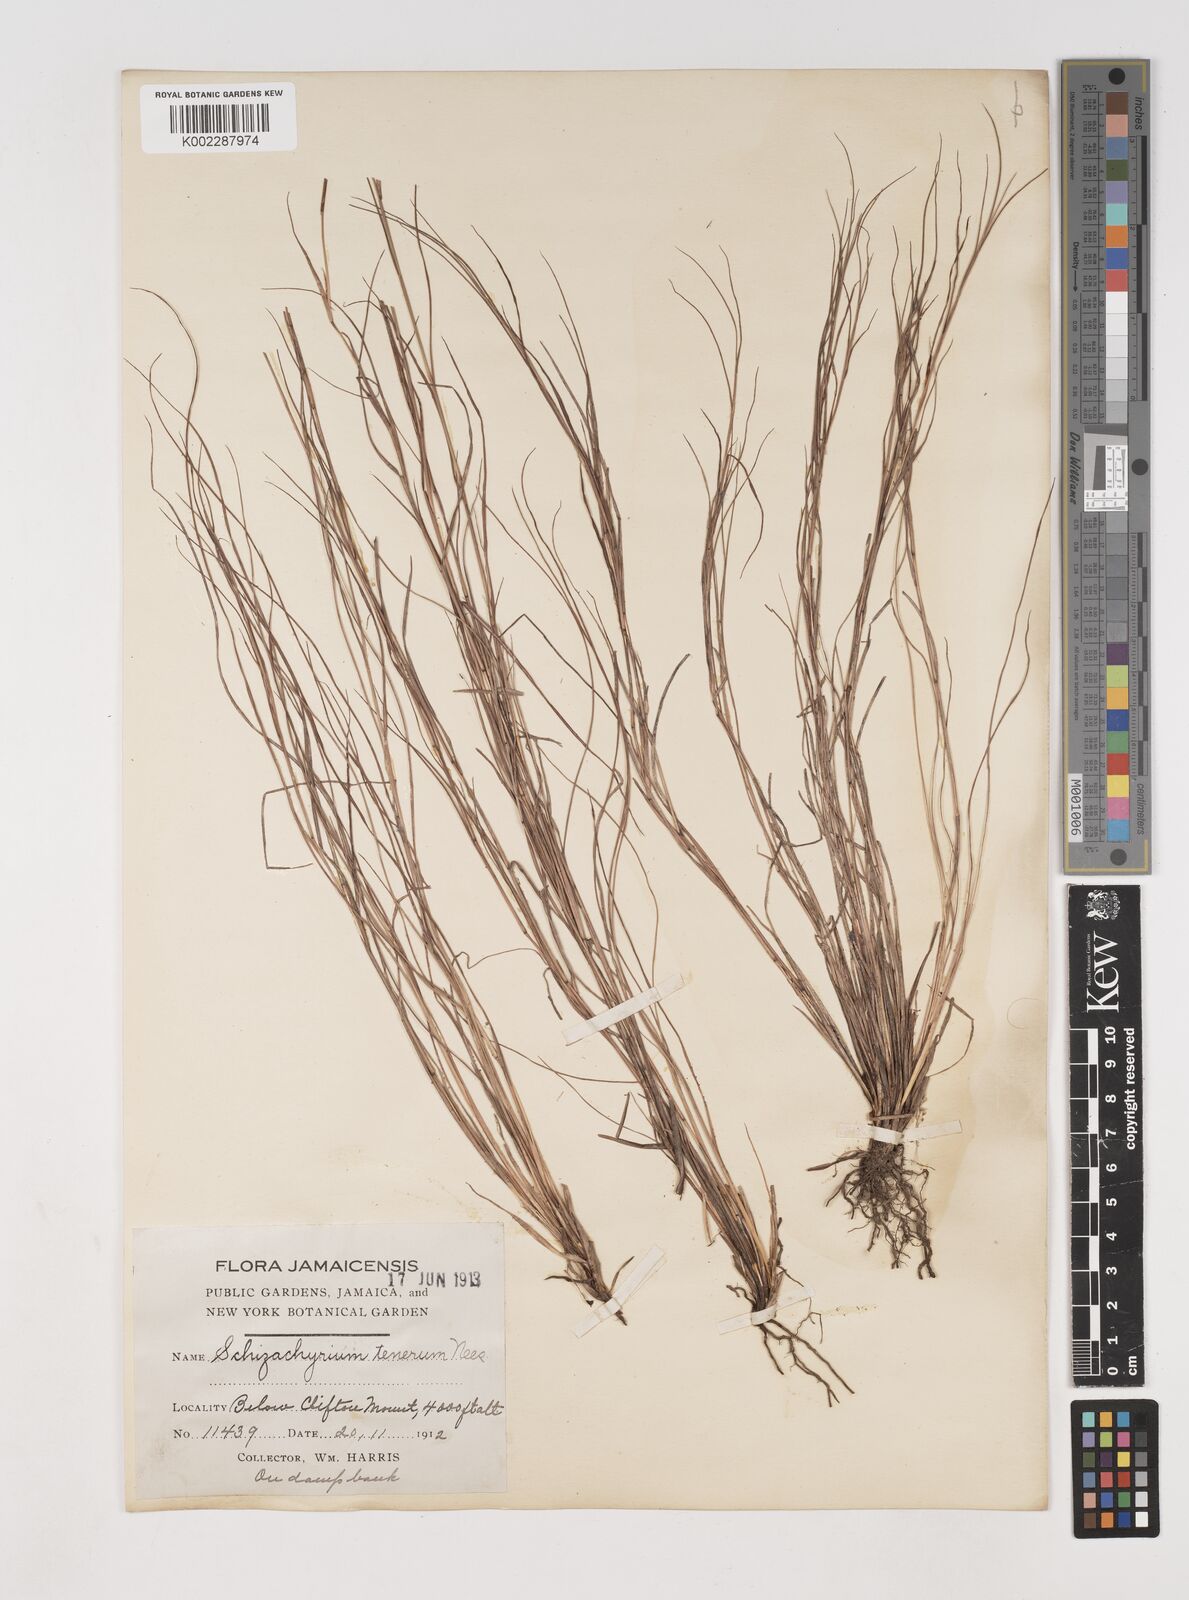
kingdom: Plantae
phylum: Tracheophyta
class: Liliopsida
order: Poales
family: Poaceae
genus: Andropogon
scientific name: Andropogon tener
